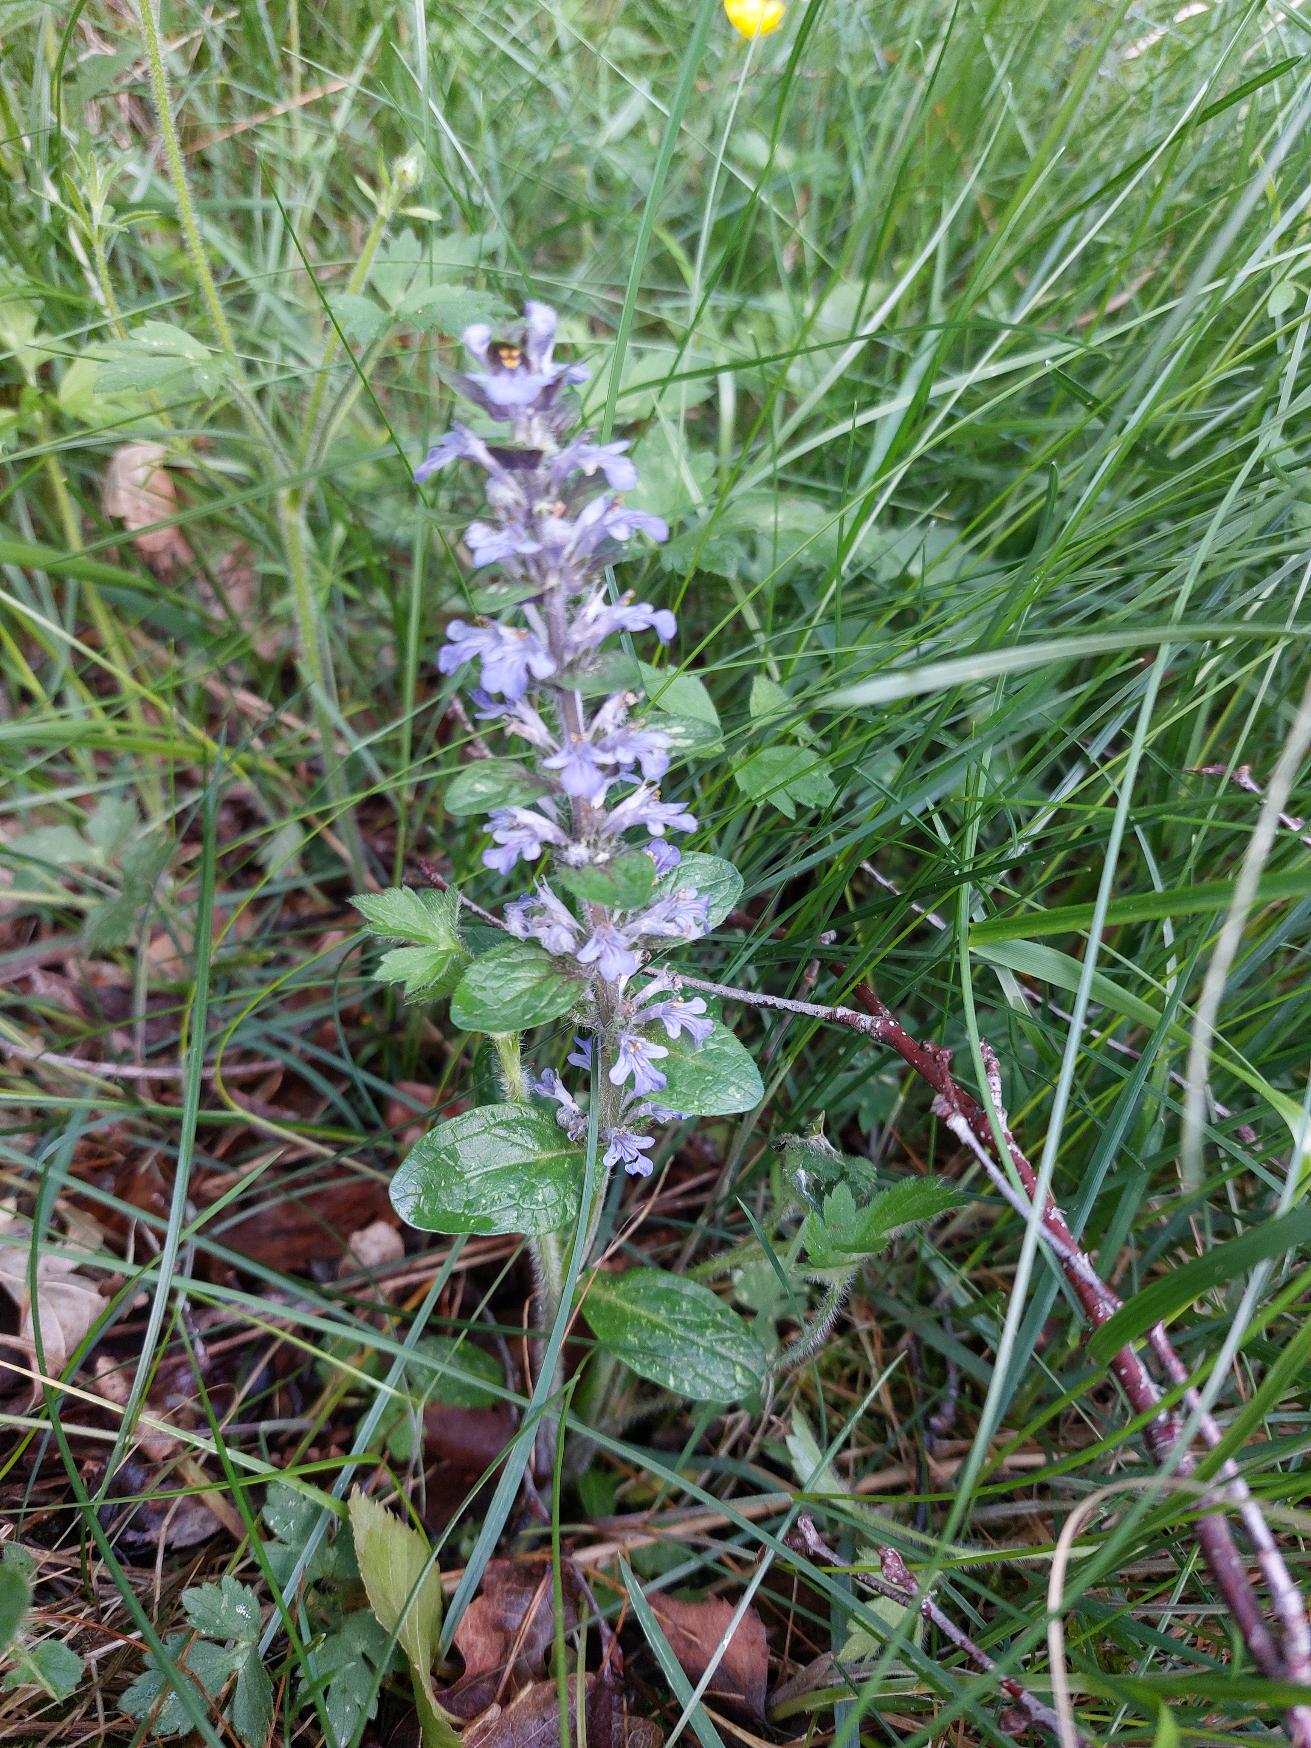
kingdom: Plantae
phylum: Tracheophyta
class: Magnoliopsida
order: Lamiales
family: Lamiaceae
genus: Ajuga
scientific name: Ajuga reptans
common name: Krybende læbeløs
